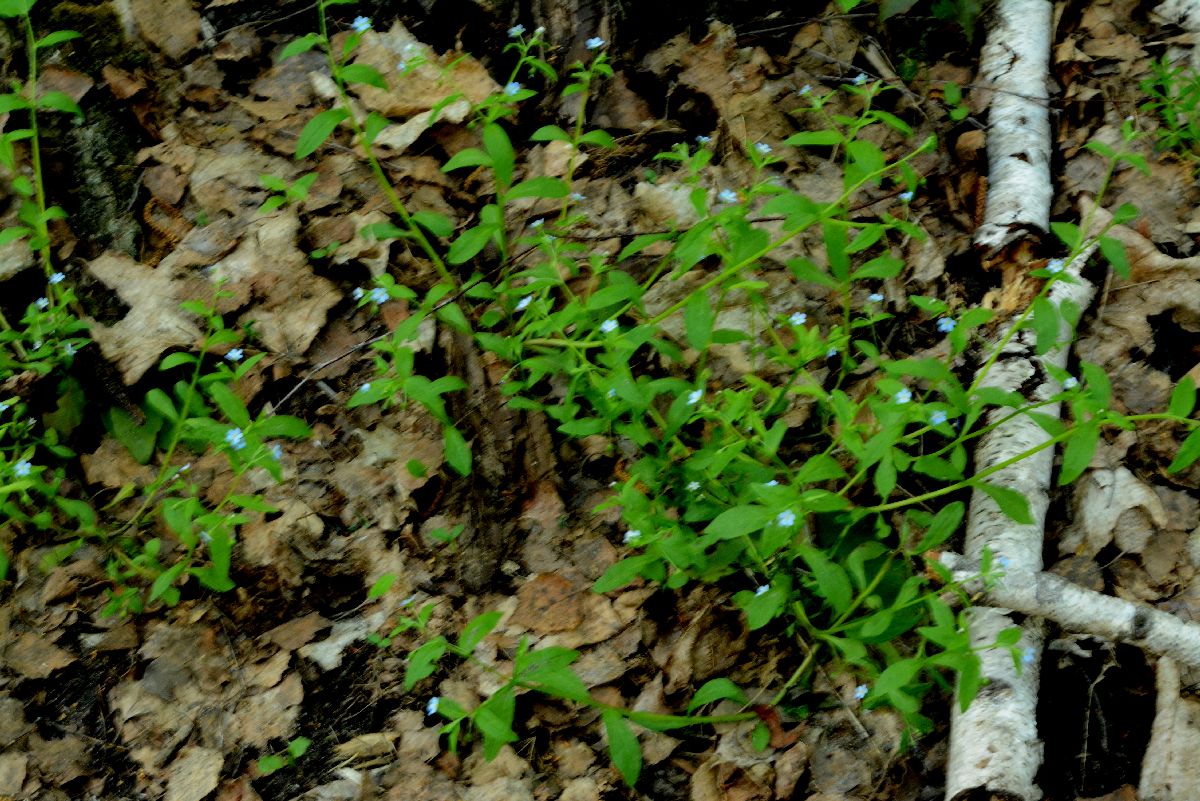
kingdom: Plantae
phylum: Tracheophyta
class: Magnoliopsida
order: Boraginales
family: Boraginaceae
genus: Memoremea
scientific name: Memoremea scorpioides
